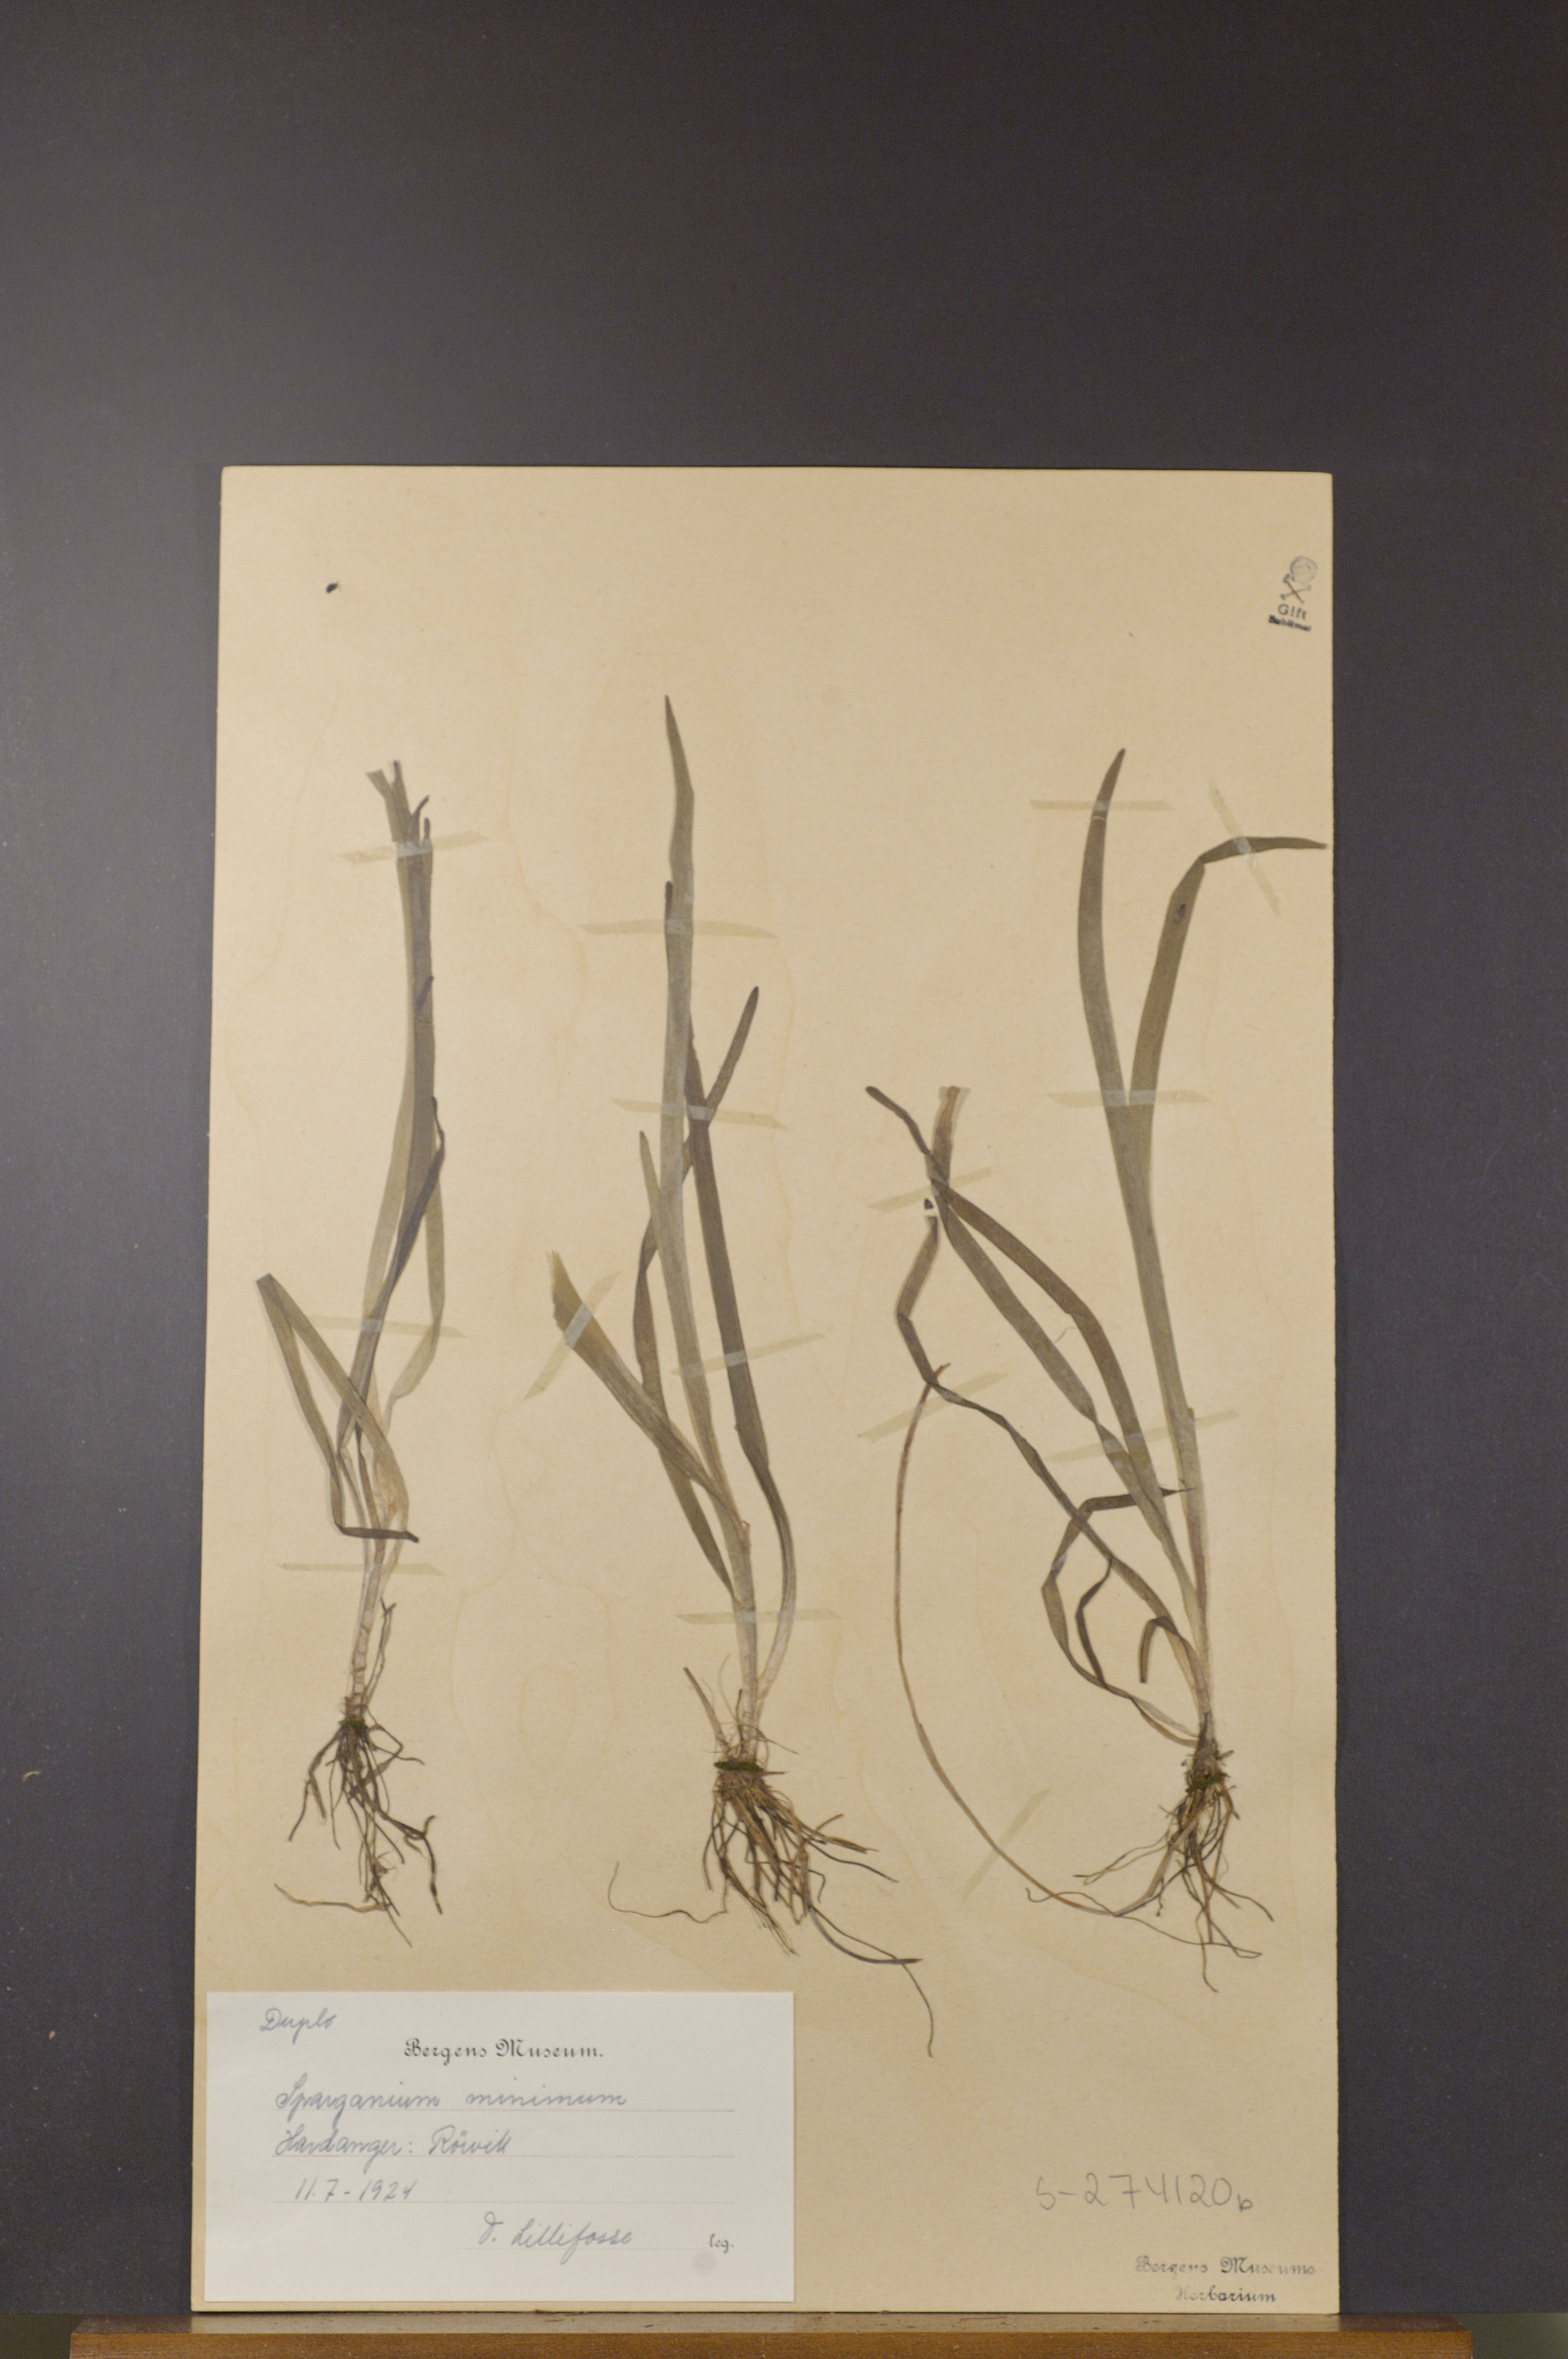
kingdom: Plantae
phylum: Tracheophyta
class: Liliopsida
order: Poales
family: Typhaceae
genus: Sparganium
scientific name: Sparganium natans
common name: Least bur-reed
